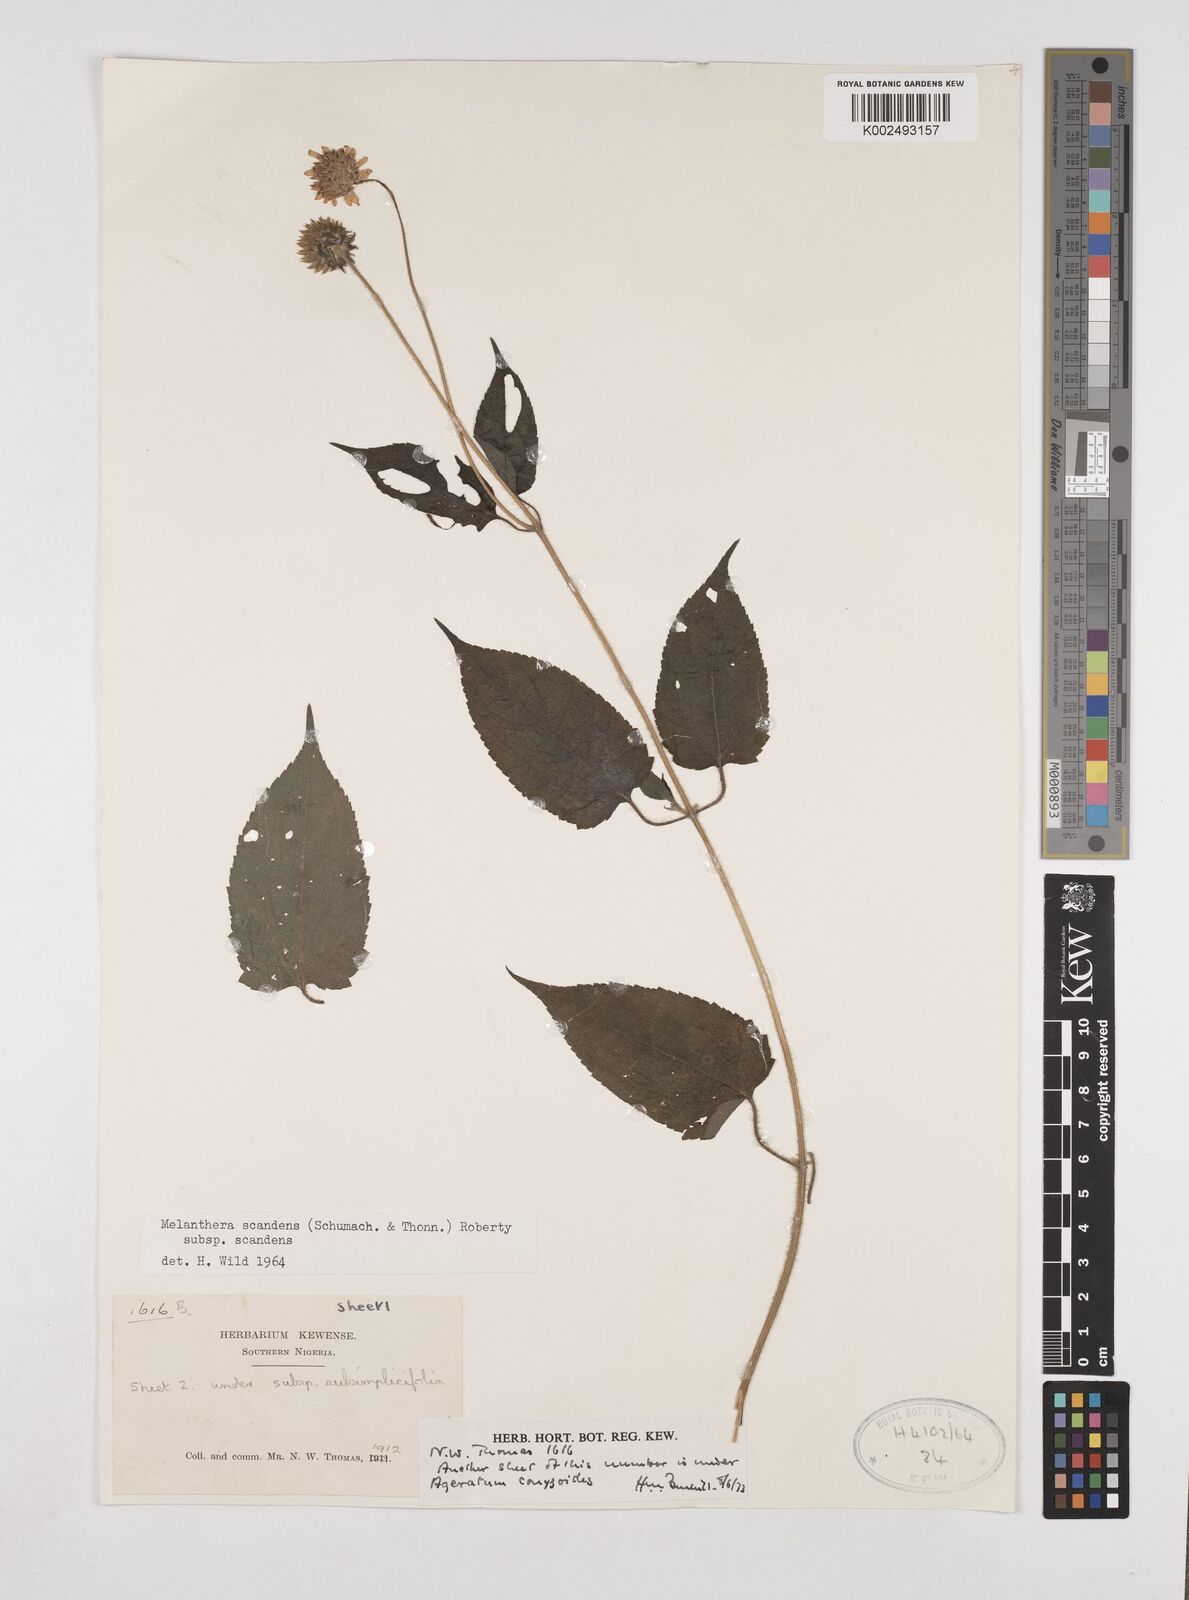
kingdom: Plantae
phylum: Tracheophyta
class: Magnoliopsida
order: Asterales
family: Asteraceae
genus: Lipotriche
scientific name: Lipotriche scandens
